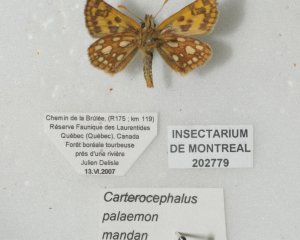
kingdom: Animalia
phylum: Arthropoda
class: Insecta
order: Lepidoptera
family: Hesperiidae
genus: Carterocephalus
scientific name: Carterocephalus palaemon
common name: Chequered Skipper
